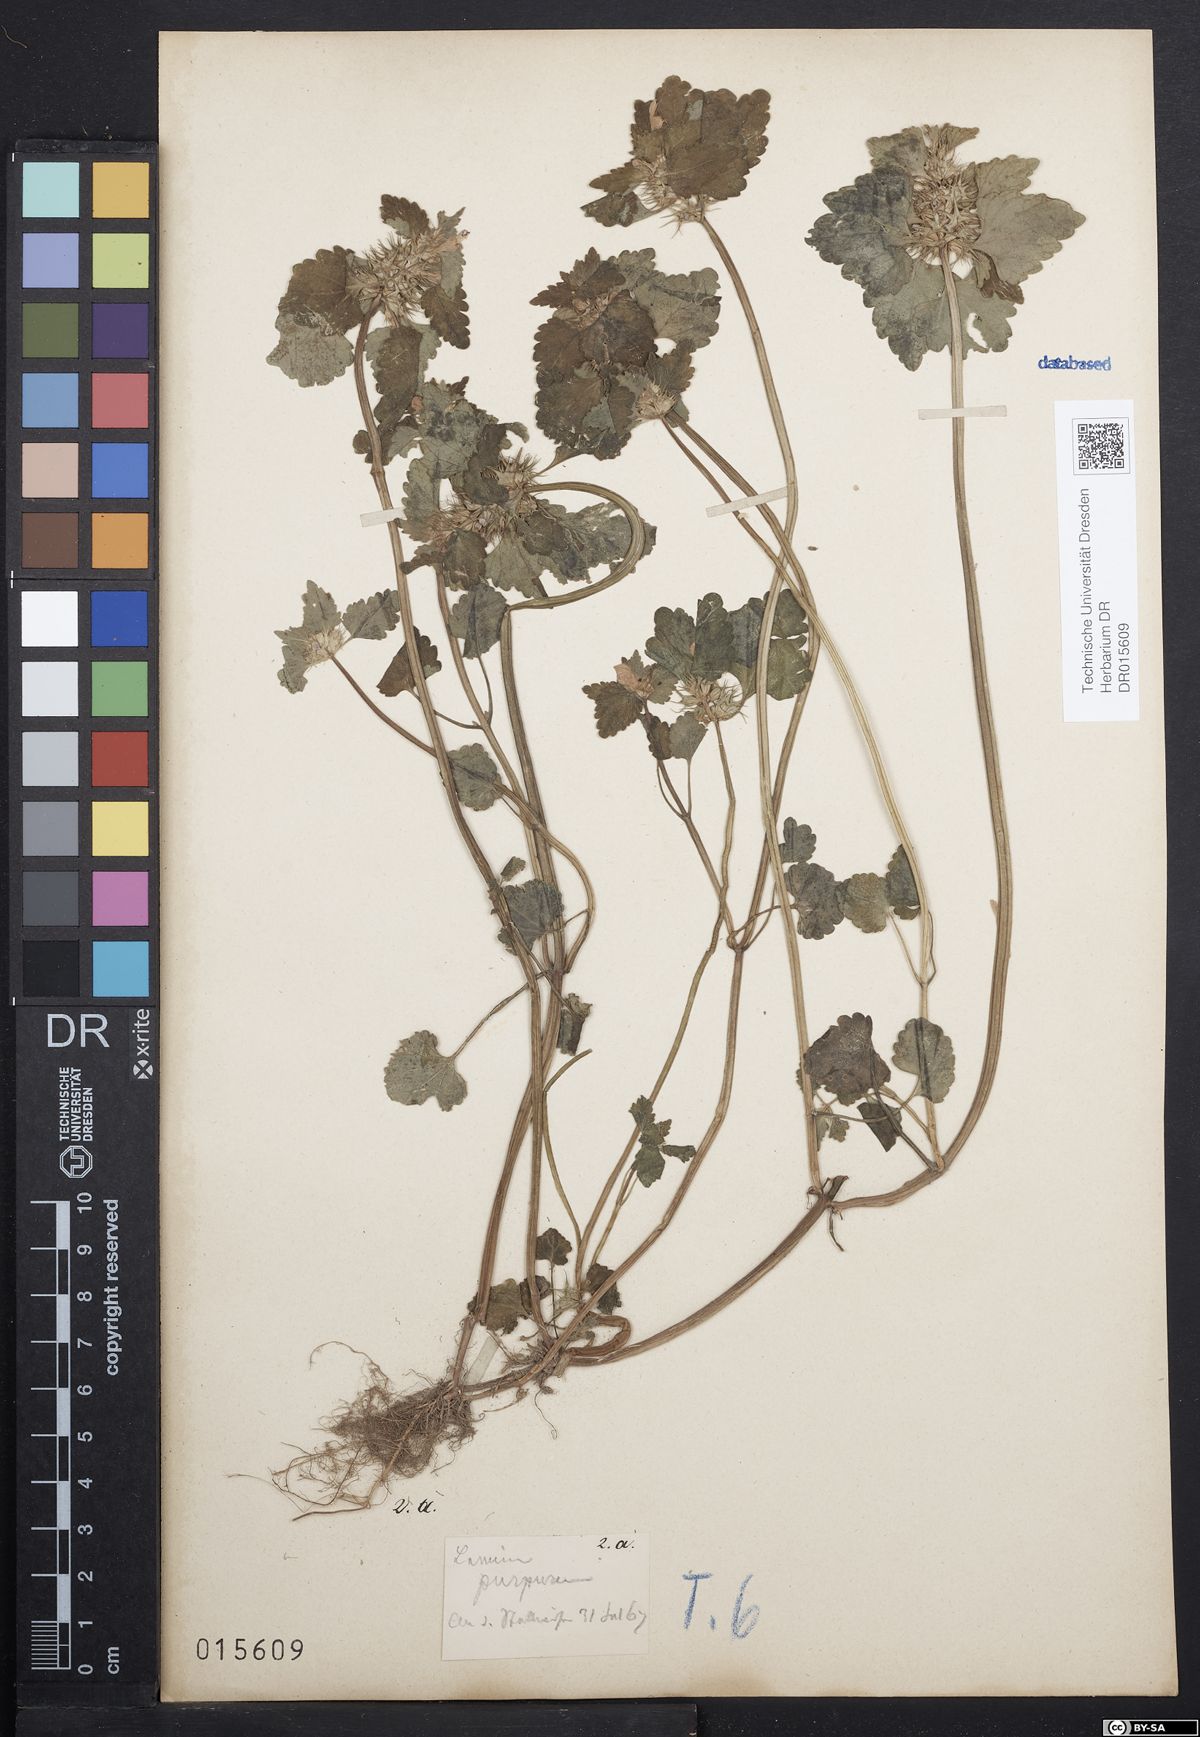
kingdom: Plantae
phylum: Tracheophyta
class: Magnoliopsida
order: Lamiales
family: Lamiaceae
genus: Lamium
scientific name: Lamium purpureum
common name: Red dead-nettle
